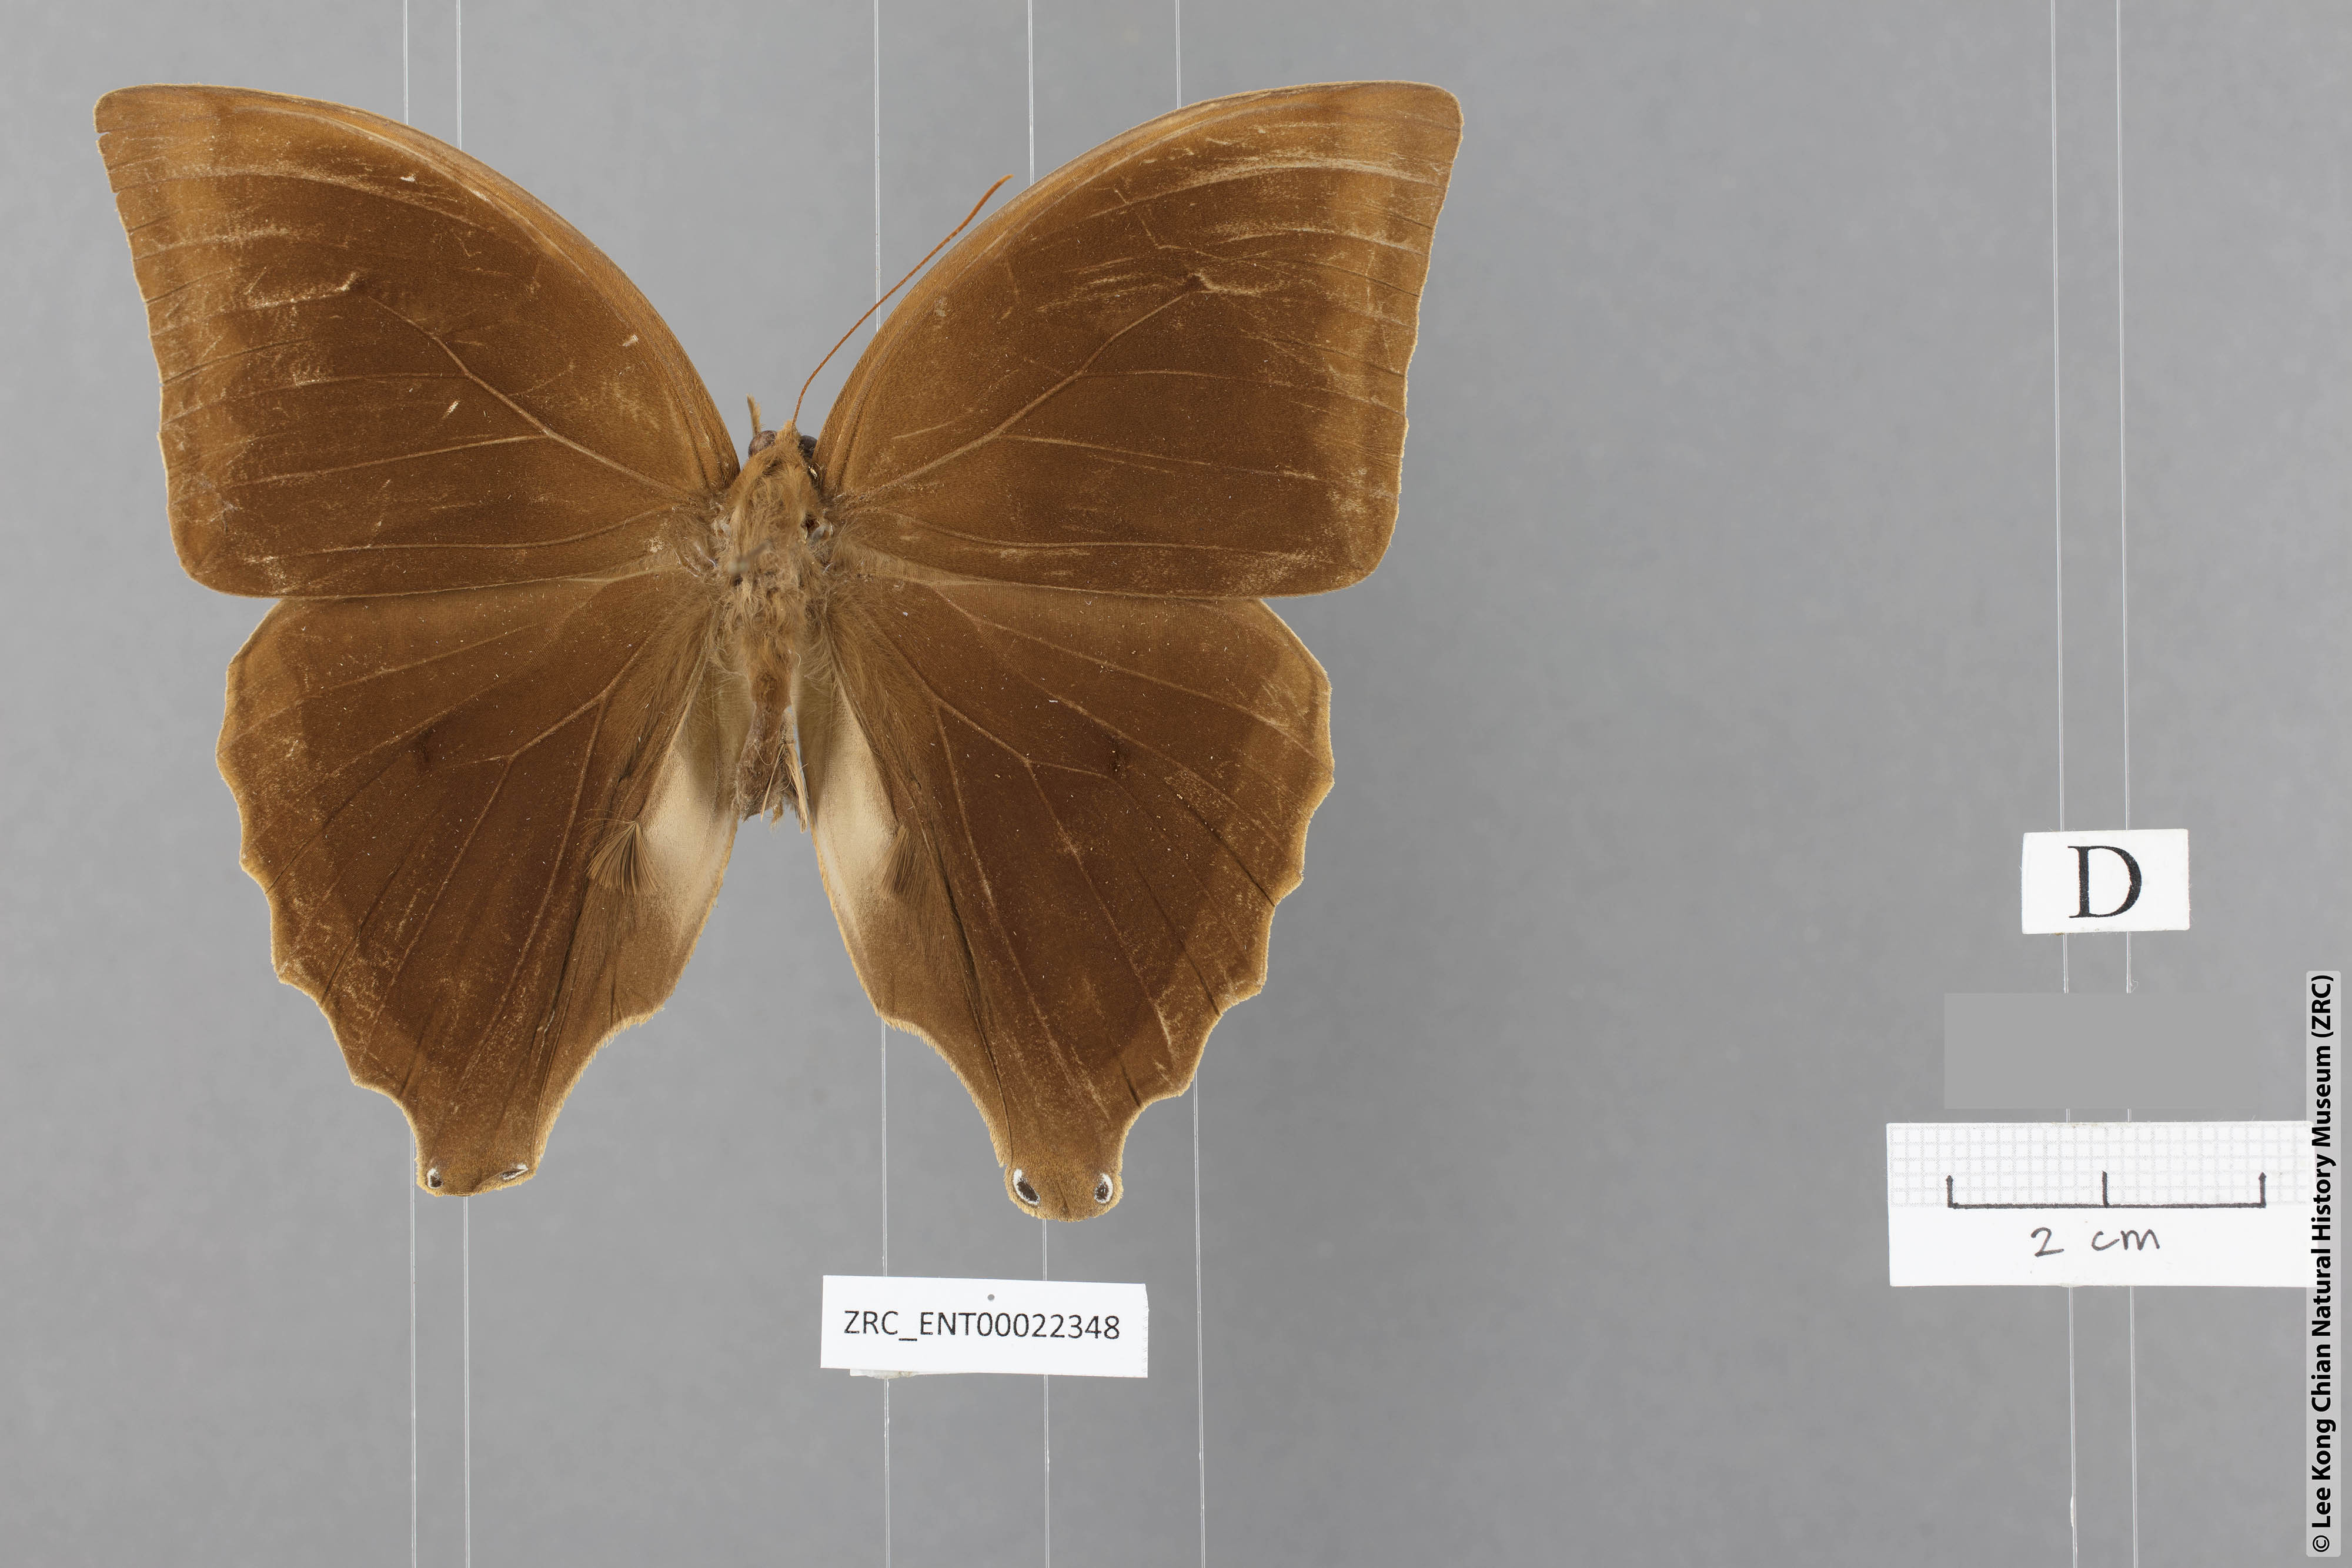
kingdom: Animalia
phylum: Arthropoda
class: Insecta
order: Lepidoptera
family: Nymphalidae
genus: Amathusia
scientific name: Amathusia friderici
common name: Bicolor-haired palm king
